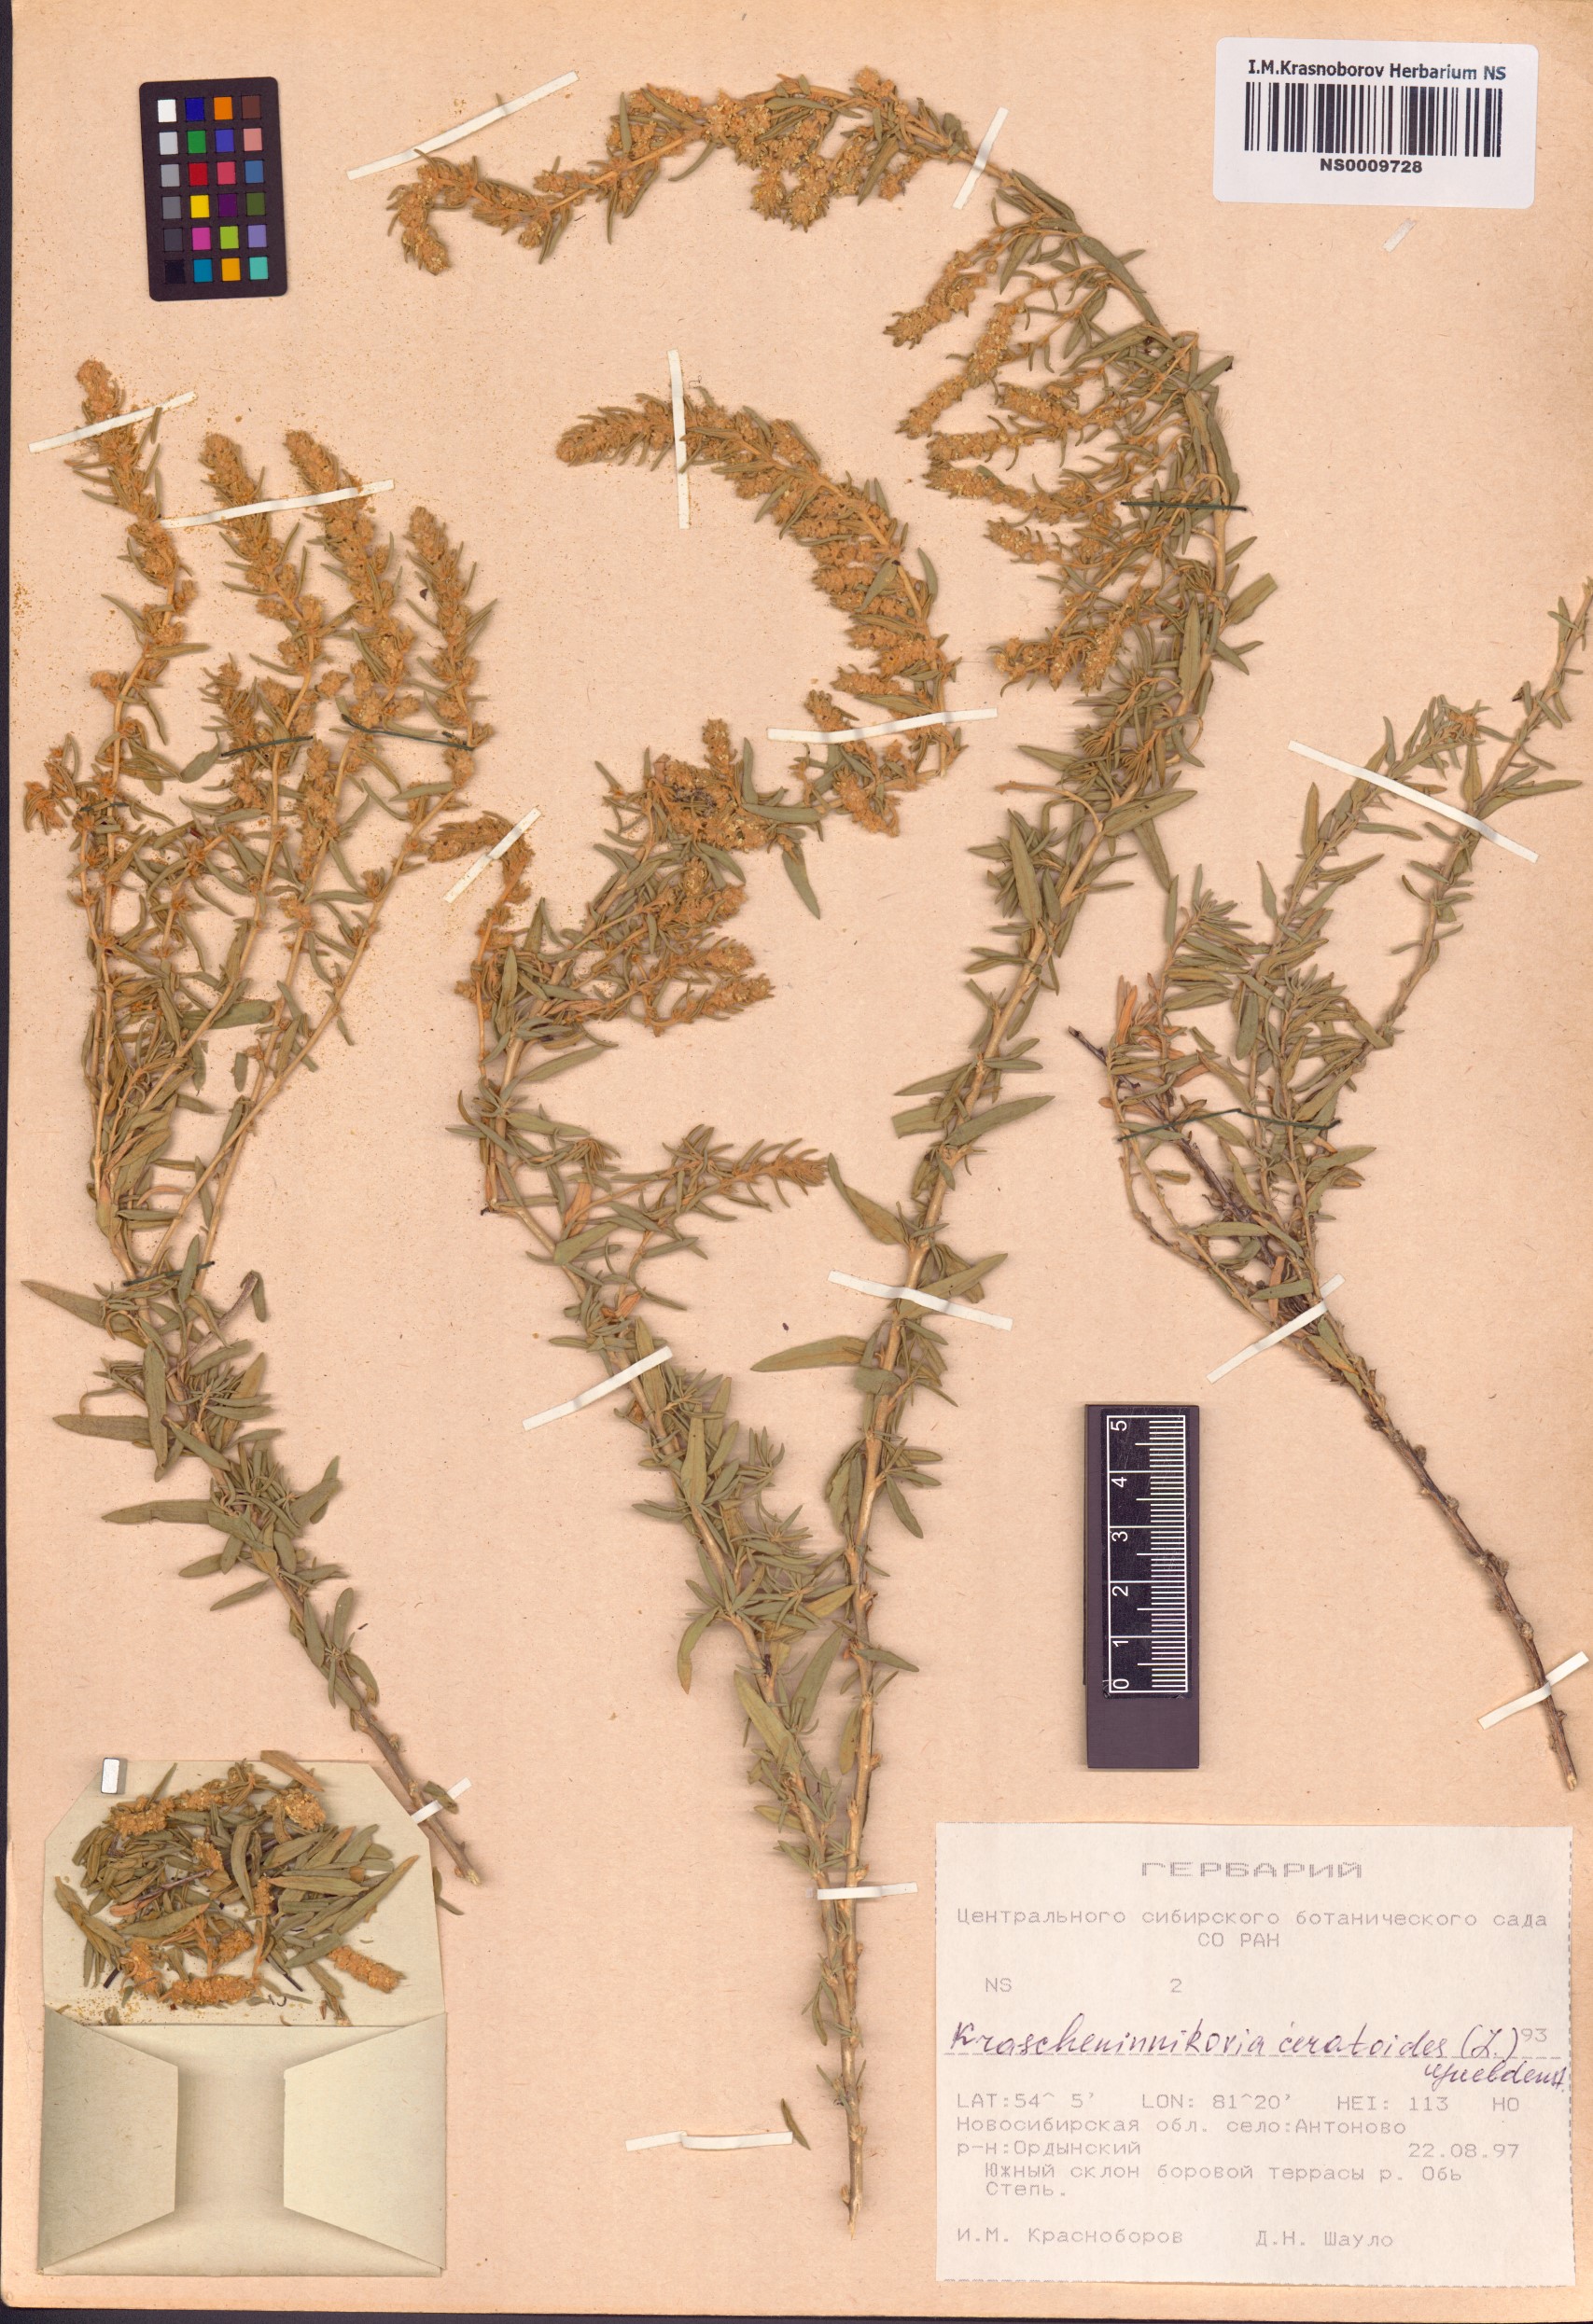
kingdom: Plantae
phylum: Tracheophyta
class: Magnoliopsida
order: Caryophyllales
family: Amaranthaceae
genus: Krascheninnikovia
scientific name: Krascheninnikovia ceratoides
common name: Pamirian winterfat
